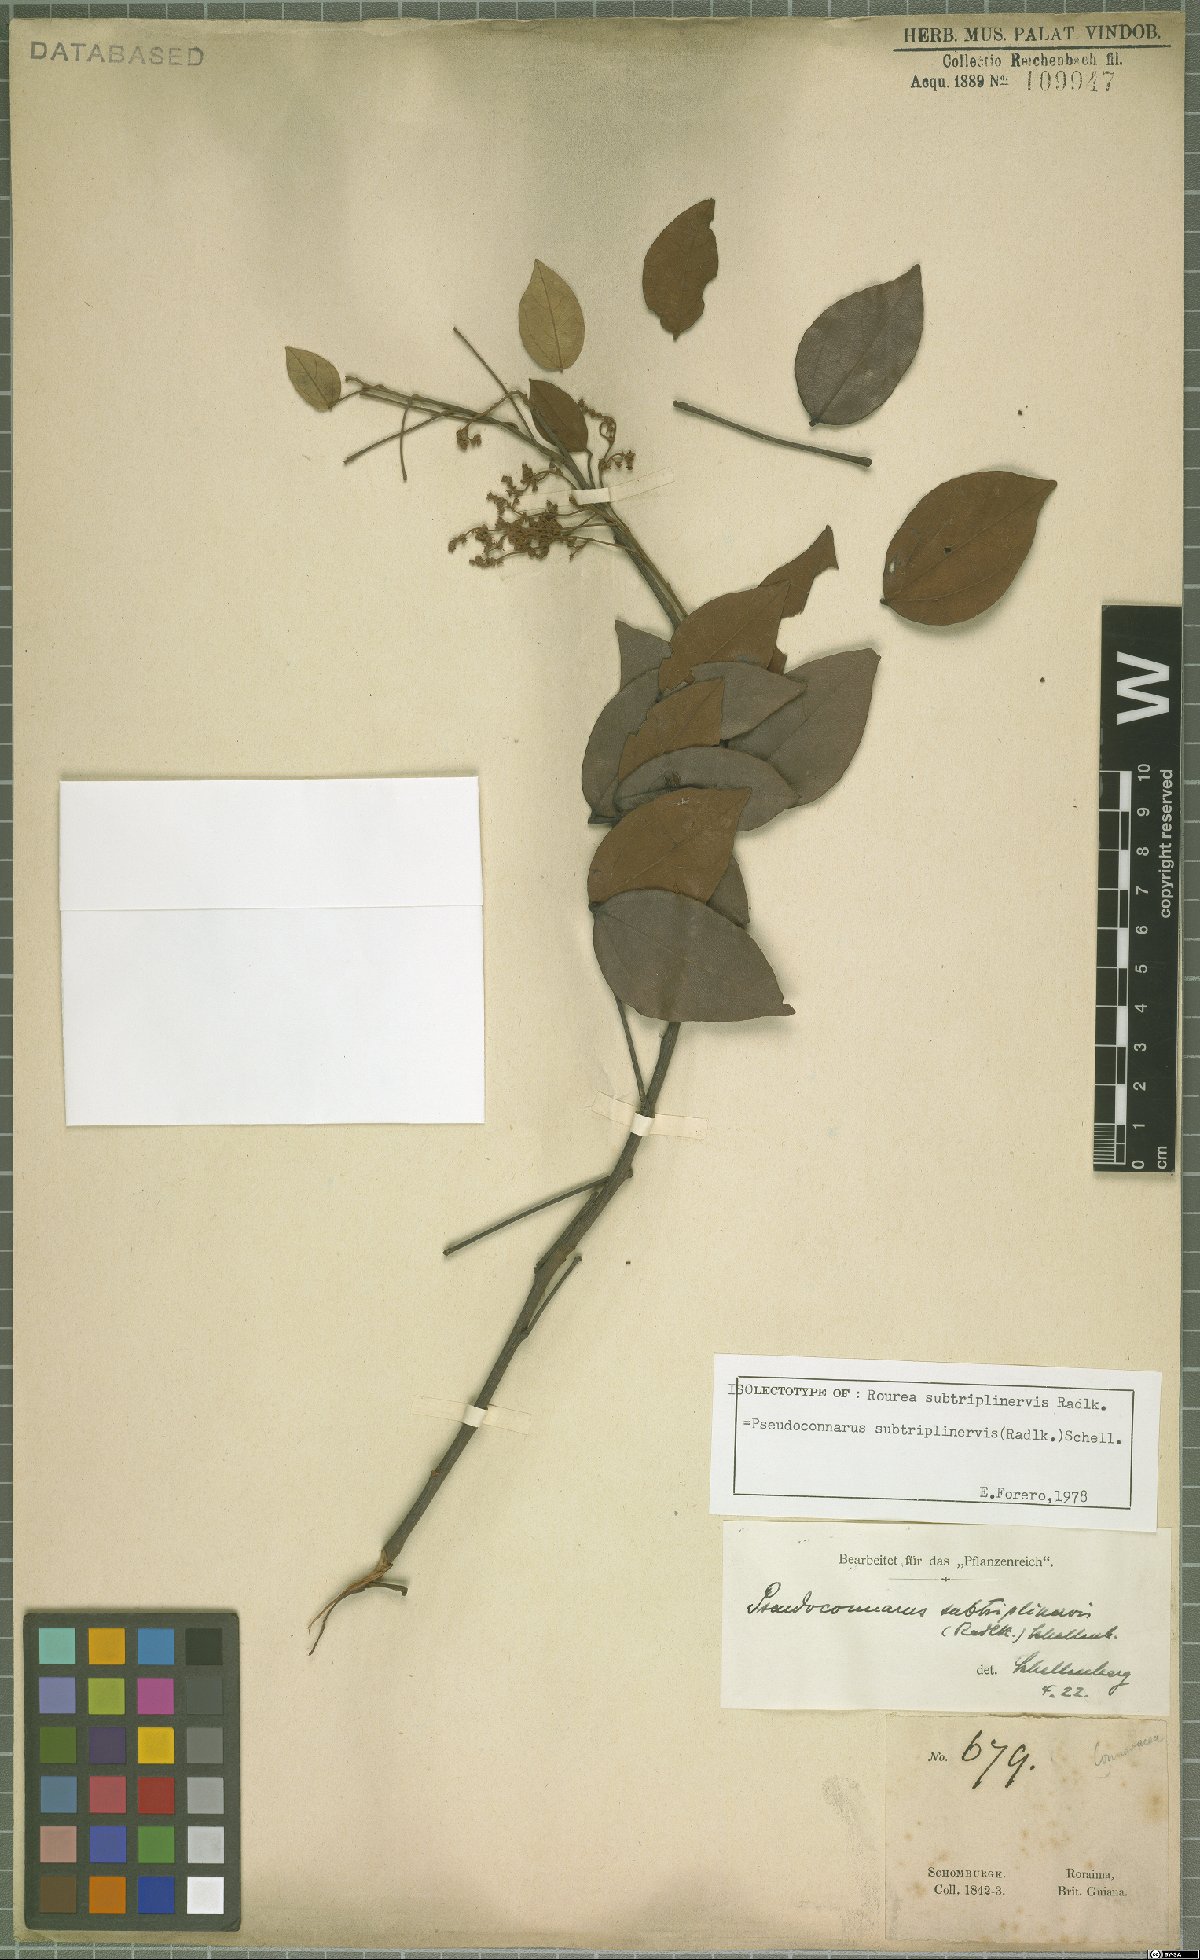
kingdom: Plantae
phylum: Tracheophyta
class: Magnoliopsida
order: Oxalidales
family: Connaraceae
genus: Pseudoconnarus
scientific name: Pseudoconnarus subtriplinervis
